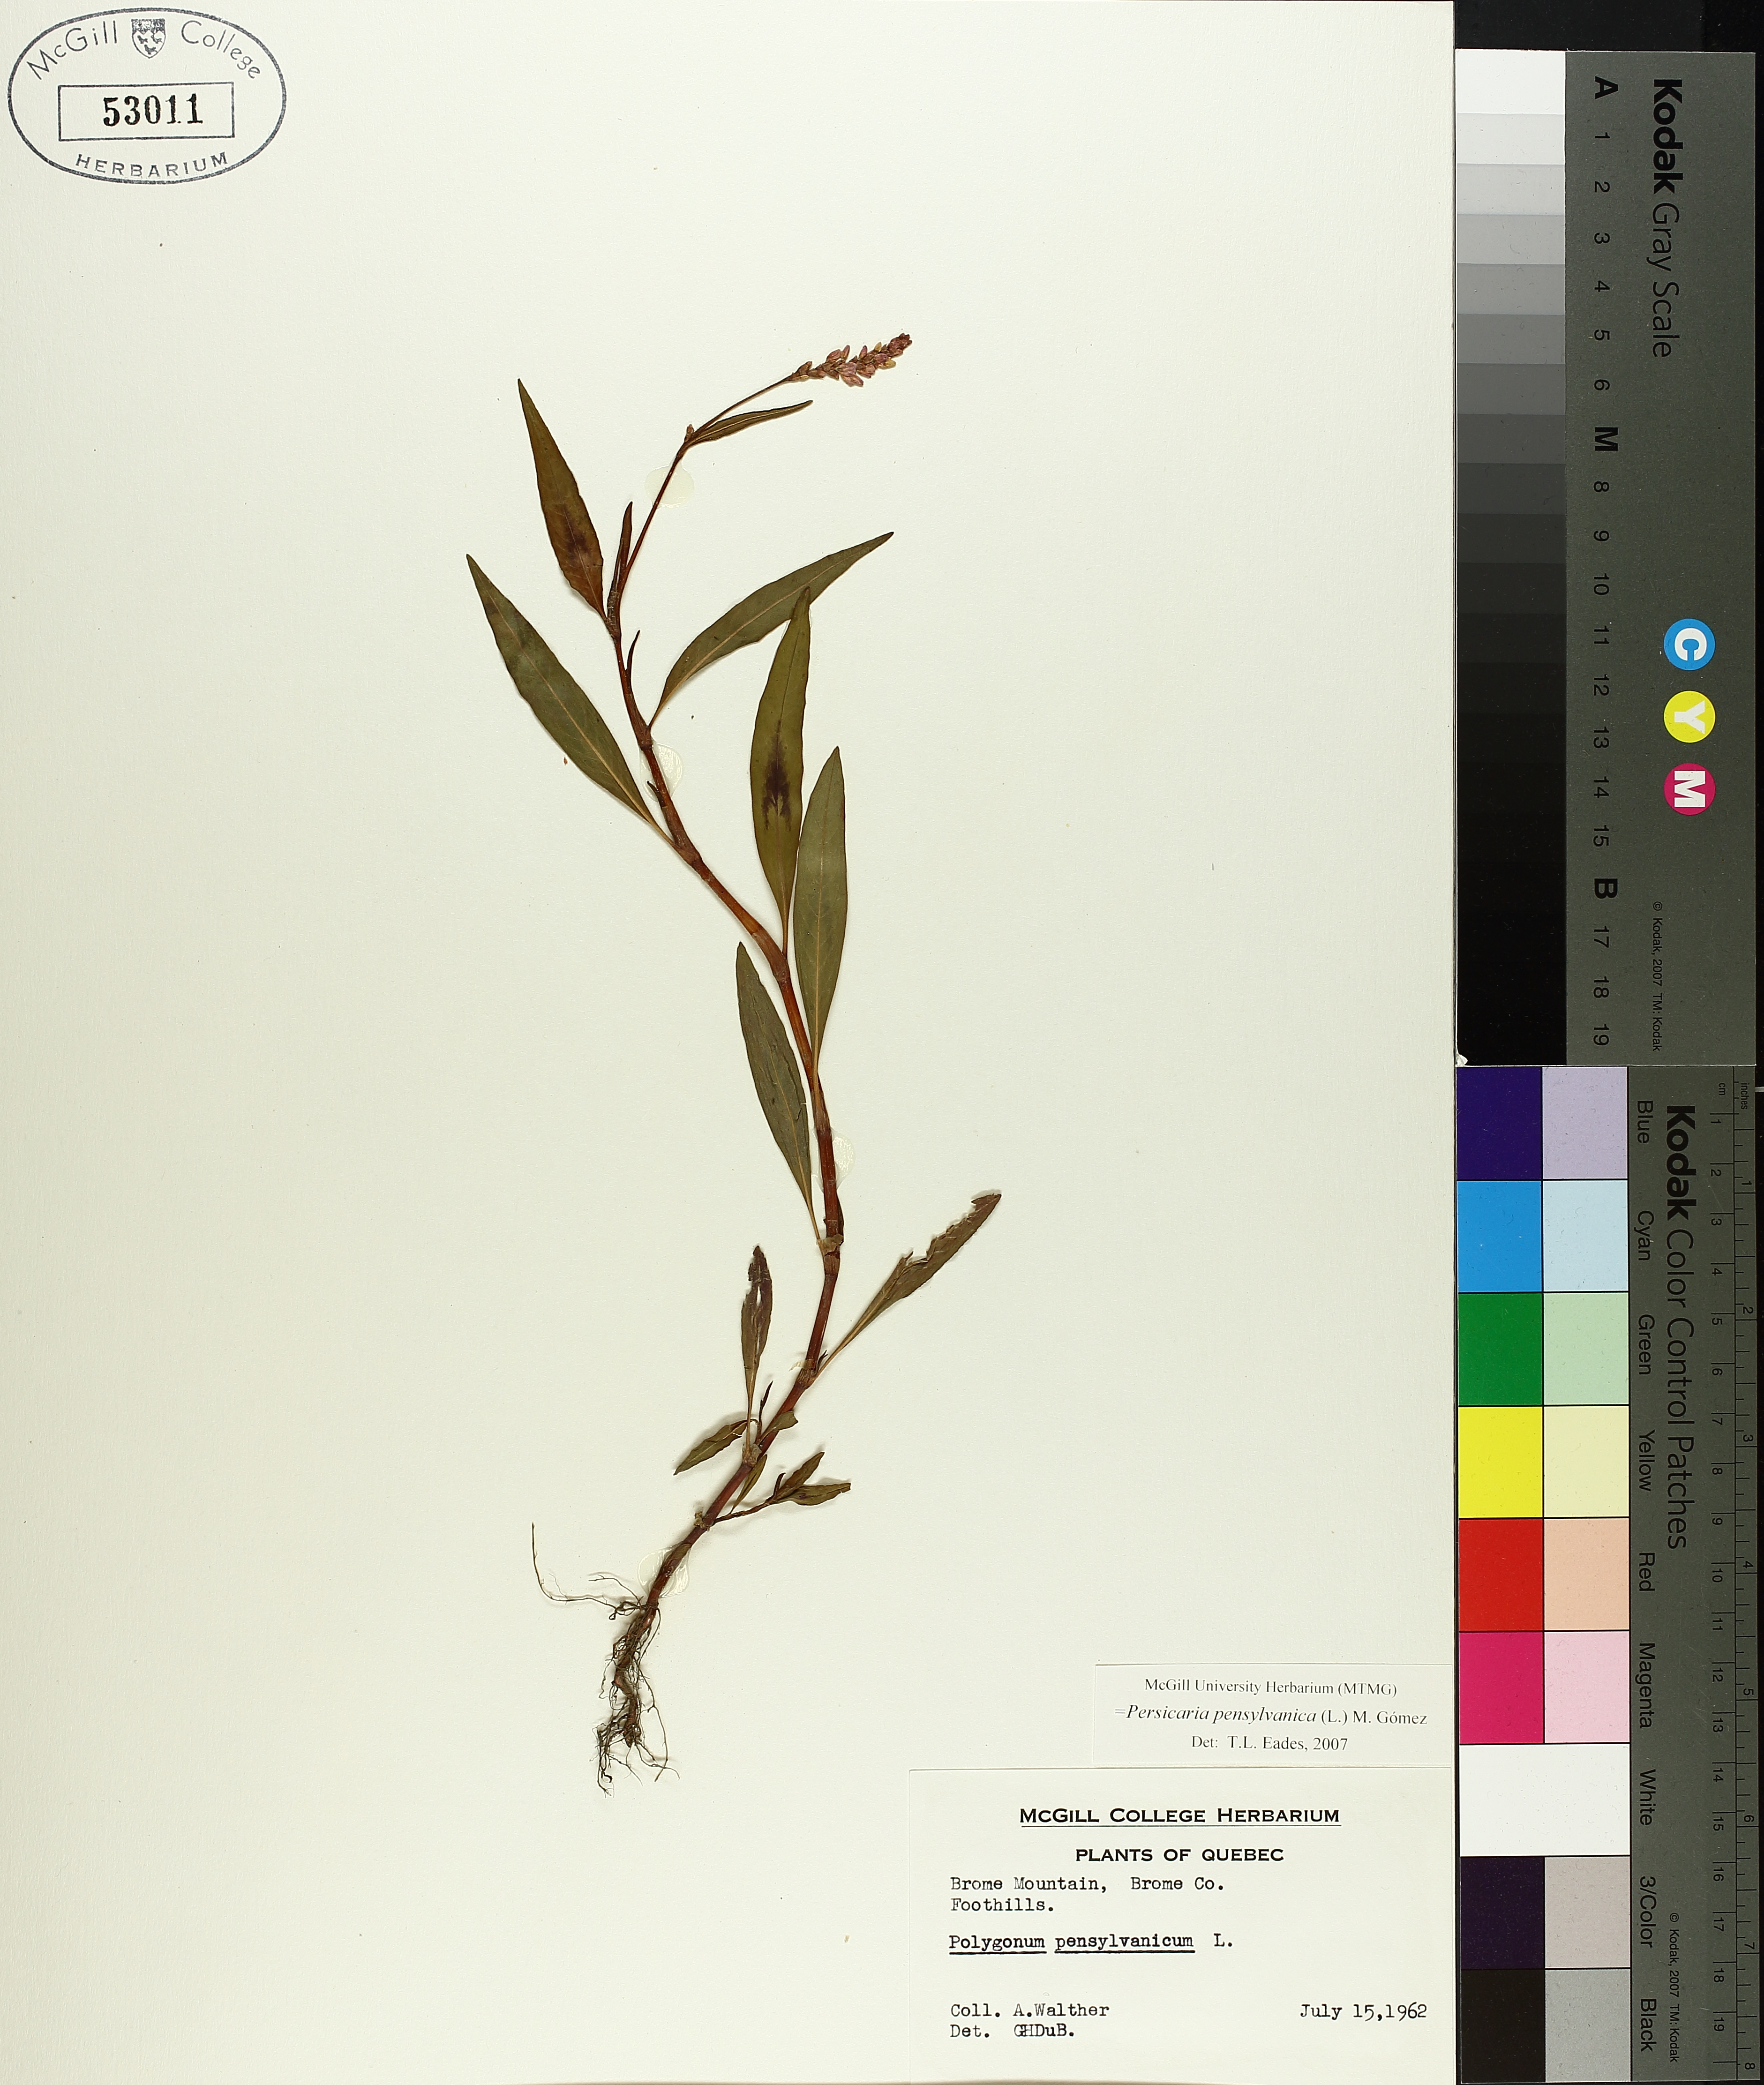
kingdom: Plantae
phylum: Tracheophyta
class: Magnoliopsida
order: Caryophyllales
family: Polygonaceae
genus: Persicaria
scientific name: Persicaria bungeana
